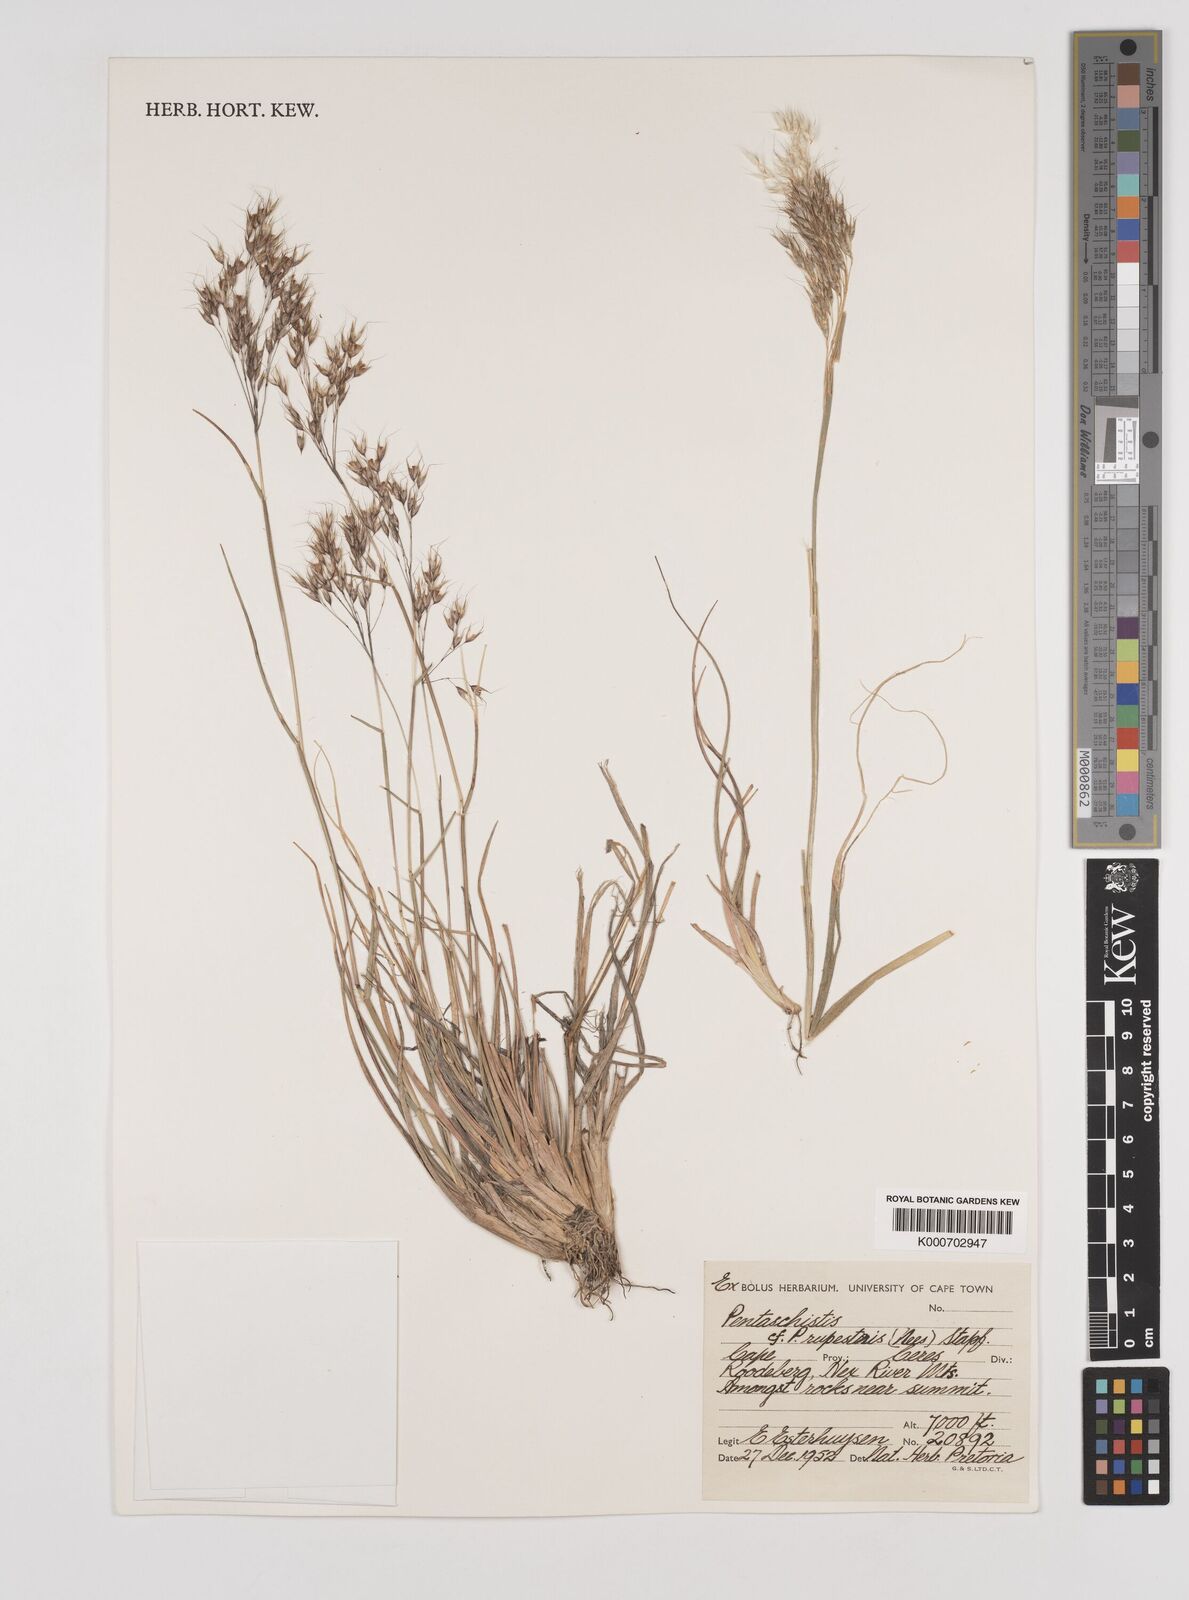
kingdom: Plantae
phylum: Tracheophyta
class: Liliopsida
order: Poales
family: Poaceae
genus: Pentameris
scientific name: Pentameris rupestris
